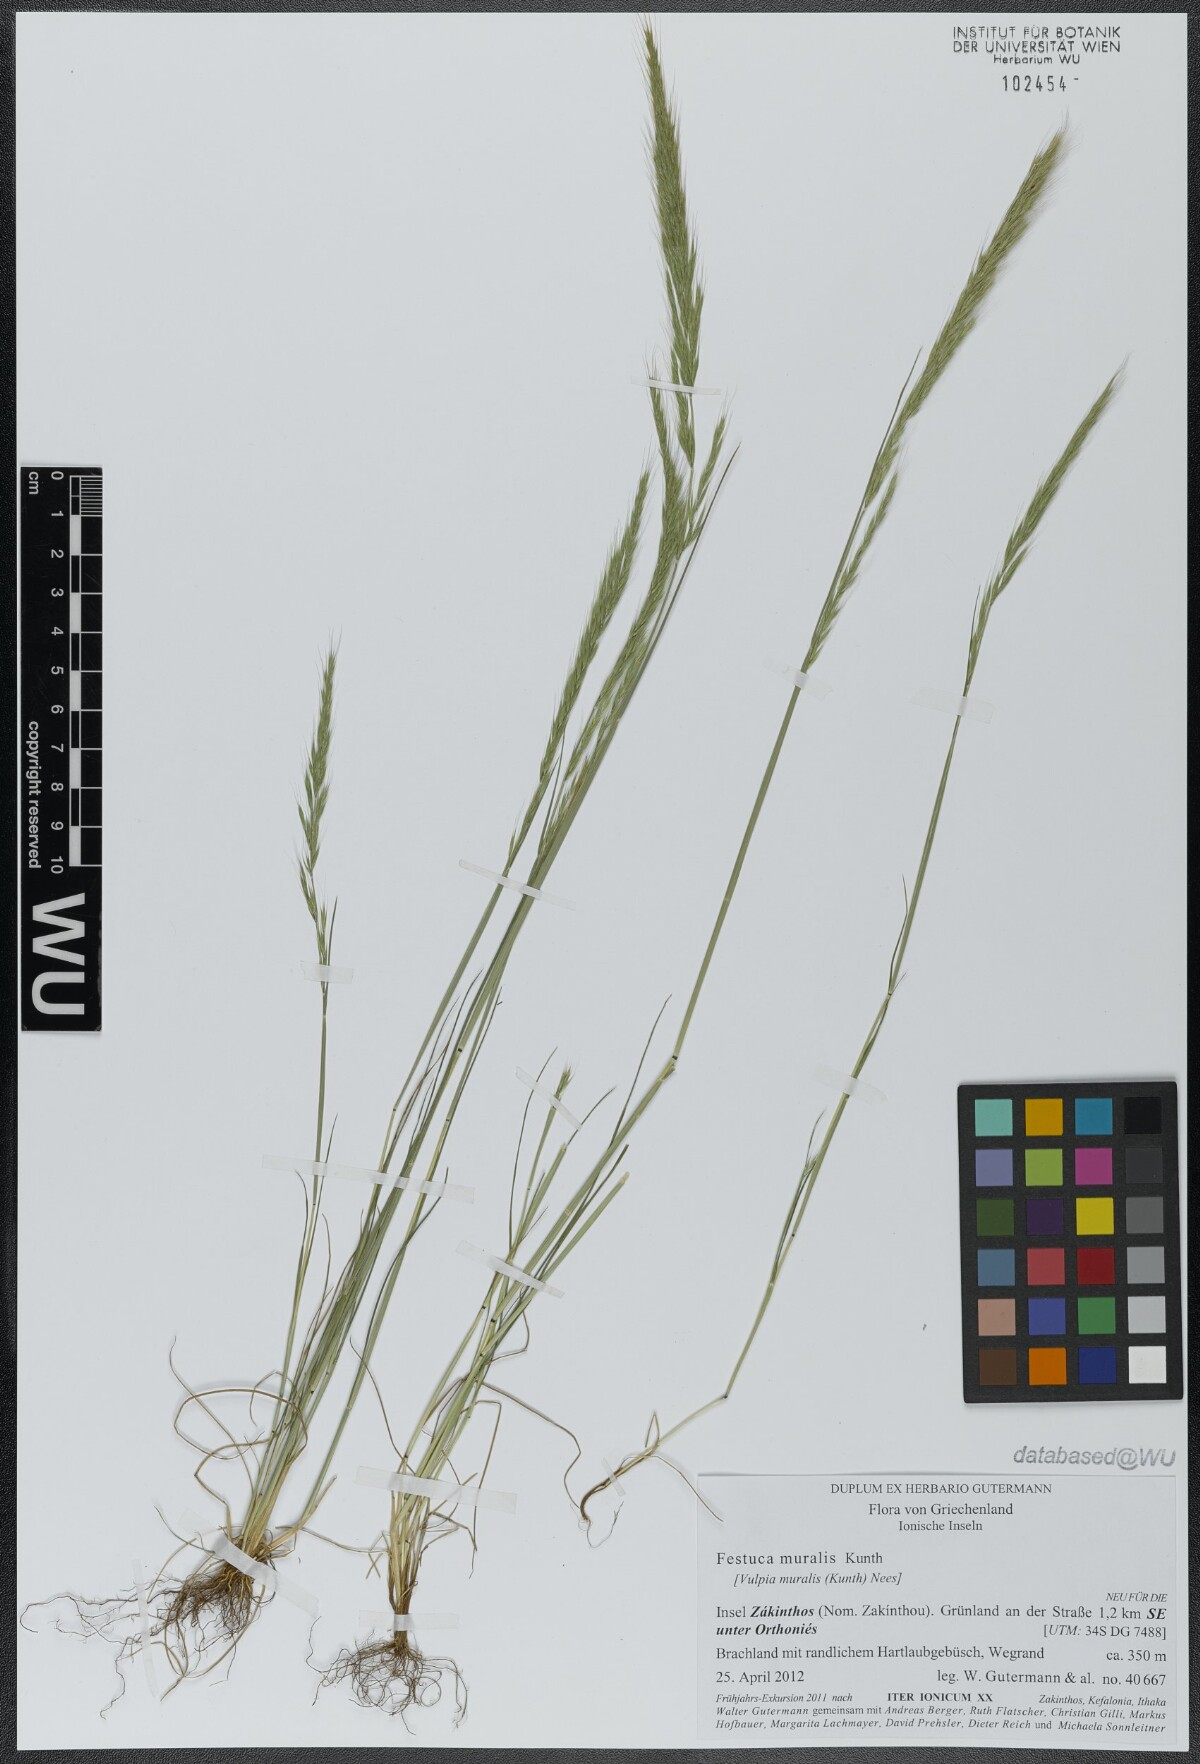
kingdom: Plantae
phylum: Tracheophyta
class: Liliopsida
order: Poales
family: Poaceae
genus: Festuca
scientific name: Festuca muralis
